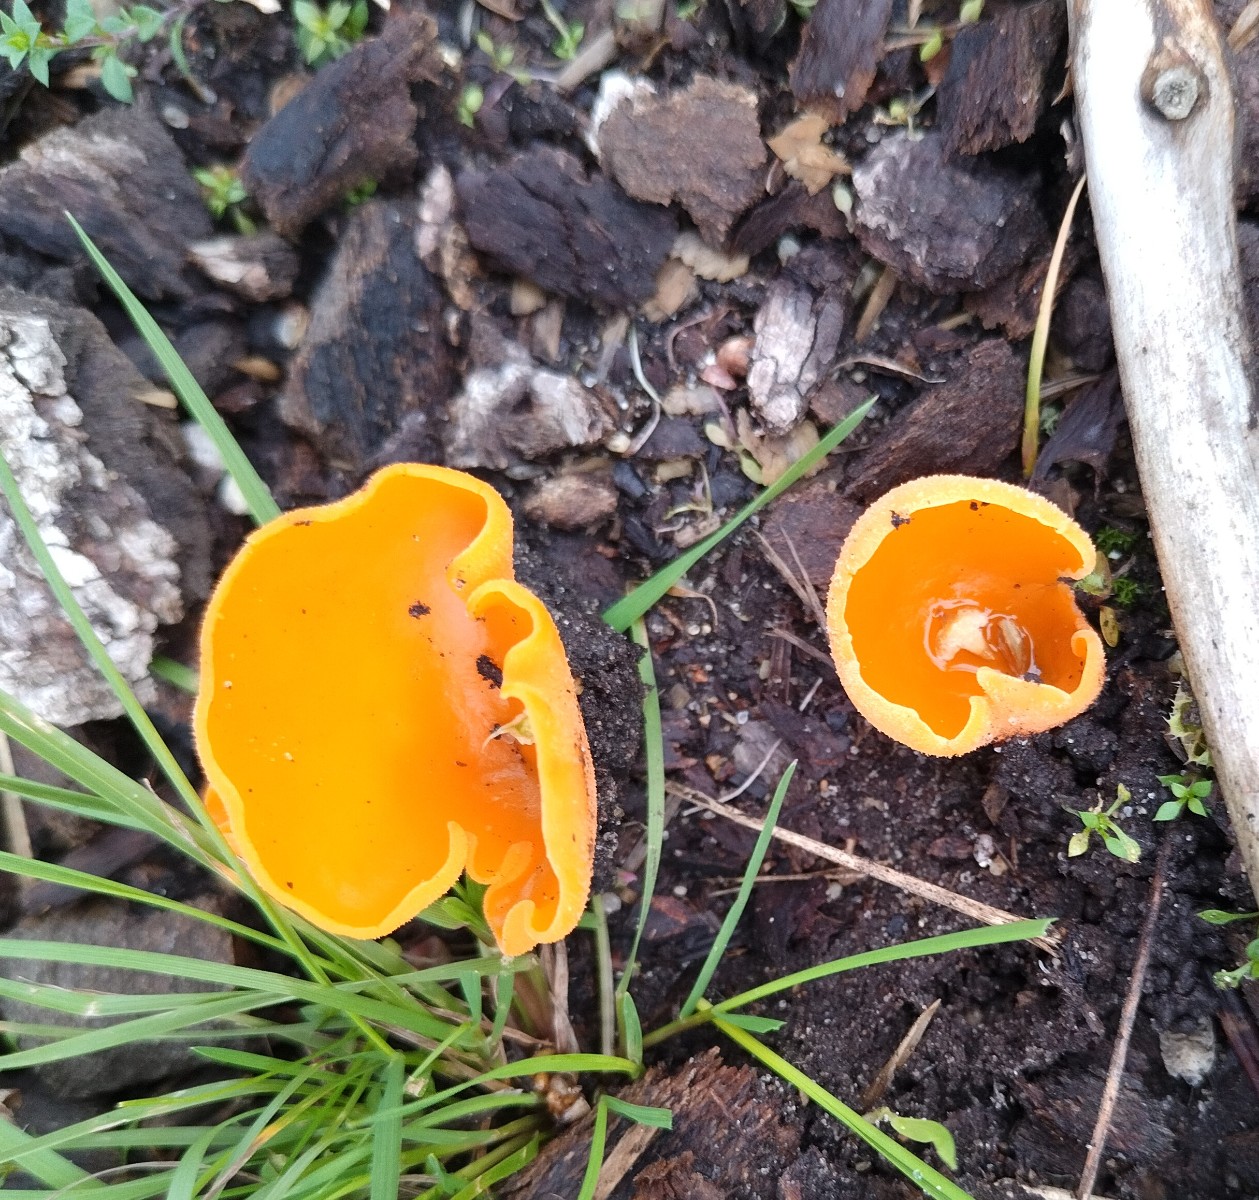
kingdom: Fungi
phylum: Ascomycota
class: Pezizomycetes
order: Pezizales
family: Pyronemataceae
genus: Aleuria
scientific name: Aleuria aurantia
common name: almindelig orangebæger
